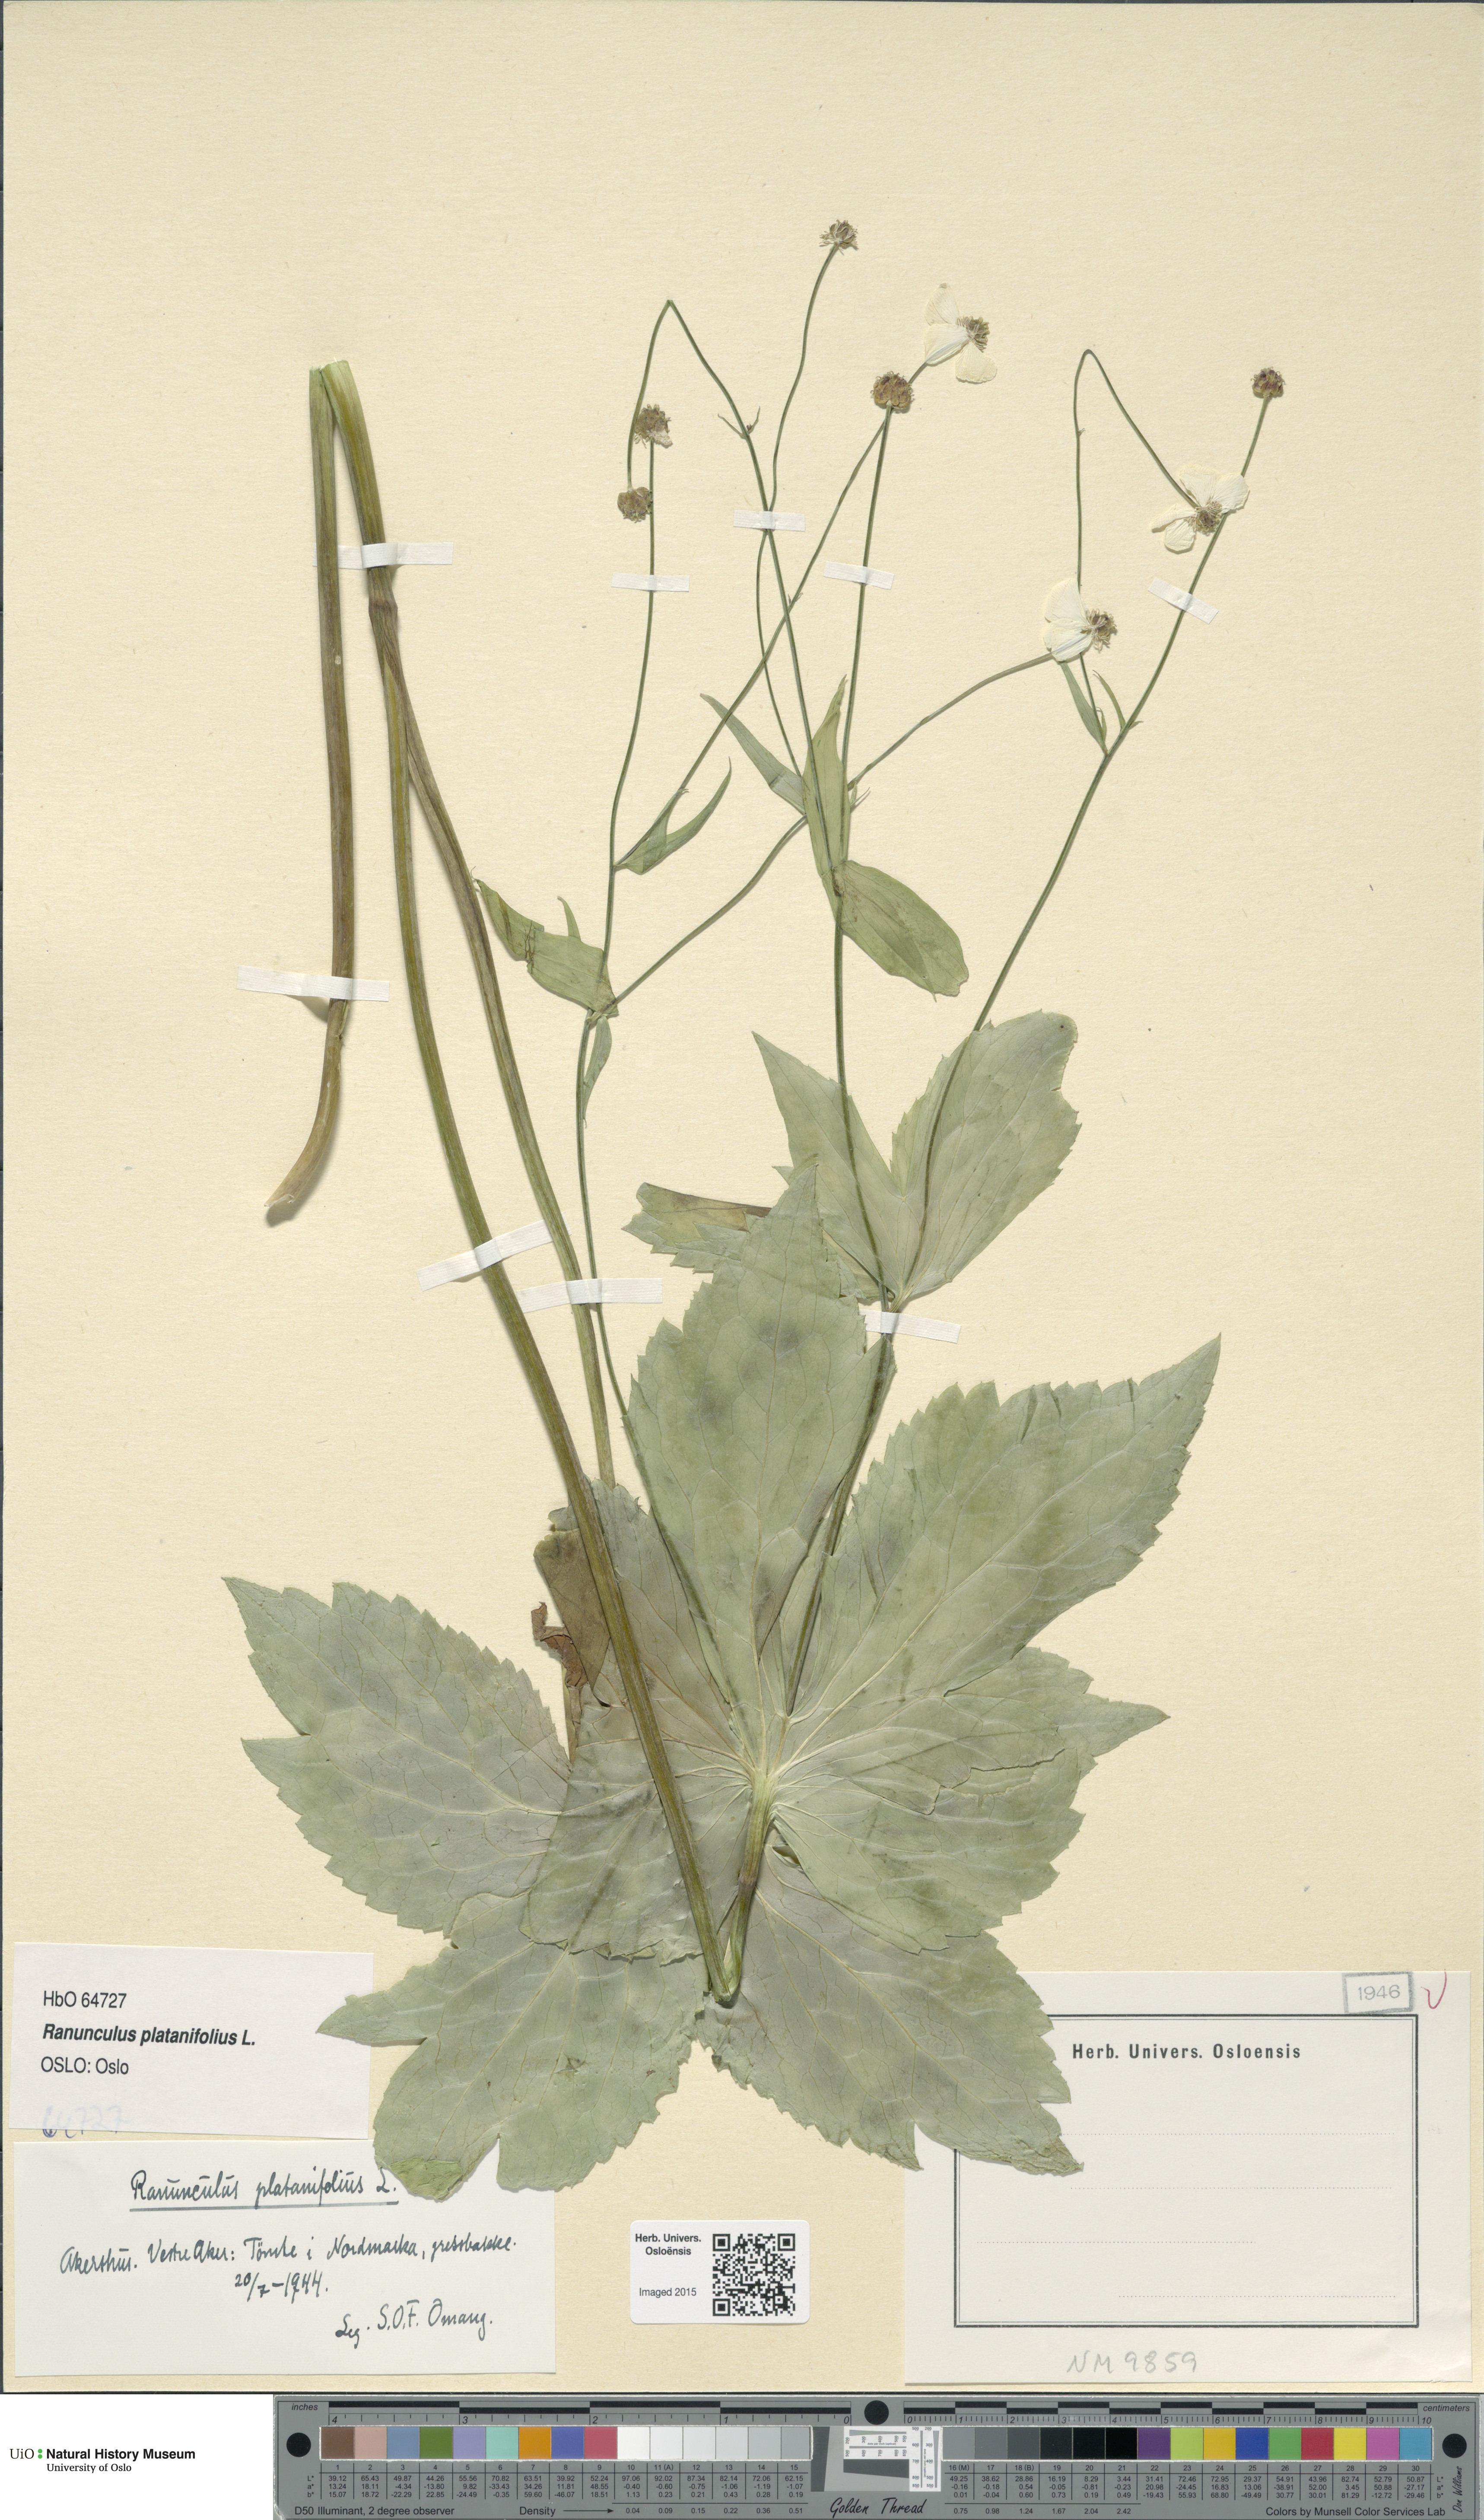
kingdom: Plantae
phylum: Tracheophyta
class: Magnoliopsida
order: Ranunculales
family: Ranunculaceae
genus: Ranunculus
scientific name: Ranunculus platanifolius
